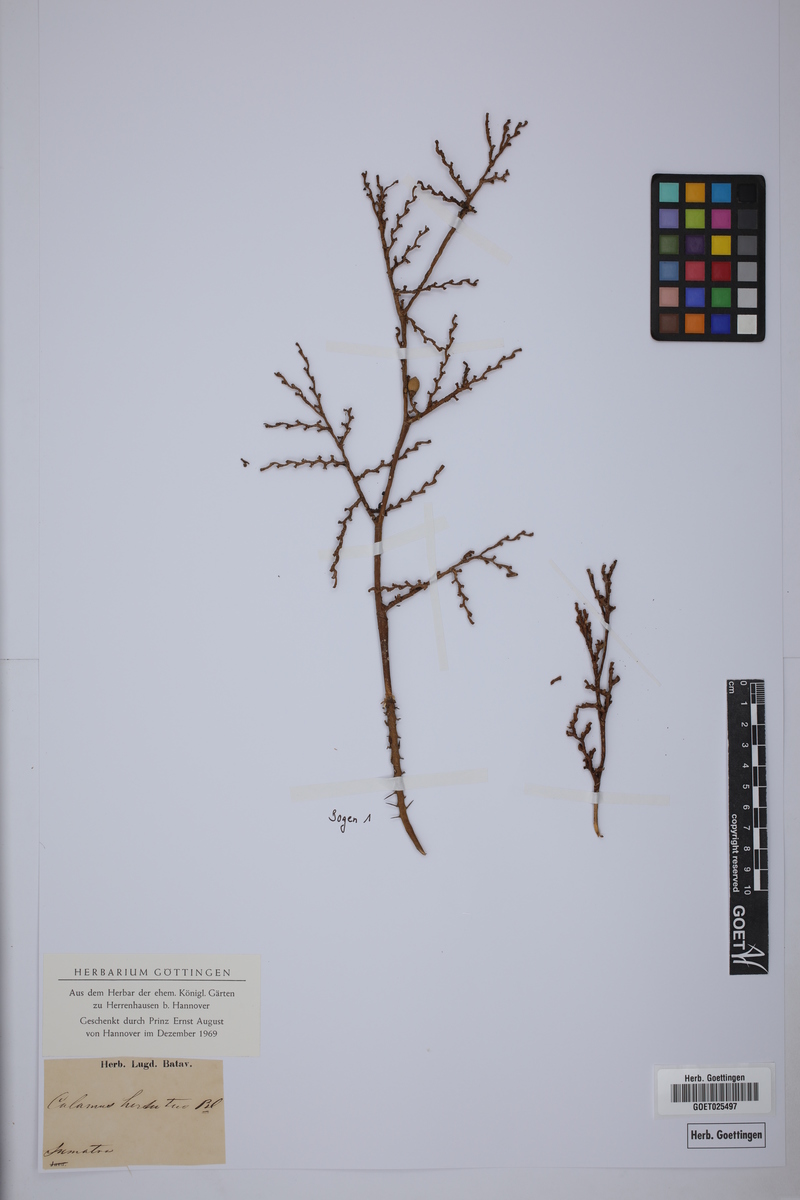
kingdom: Plantae
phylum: Tracheophyta
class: Liliopsida
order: Arecales
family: Arecaceae
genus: Calamus
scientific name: Calamus hirsutus
